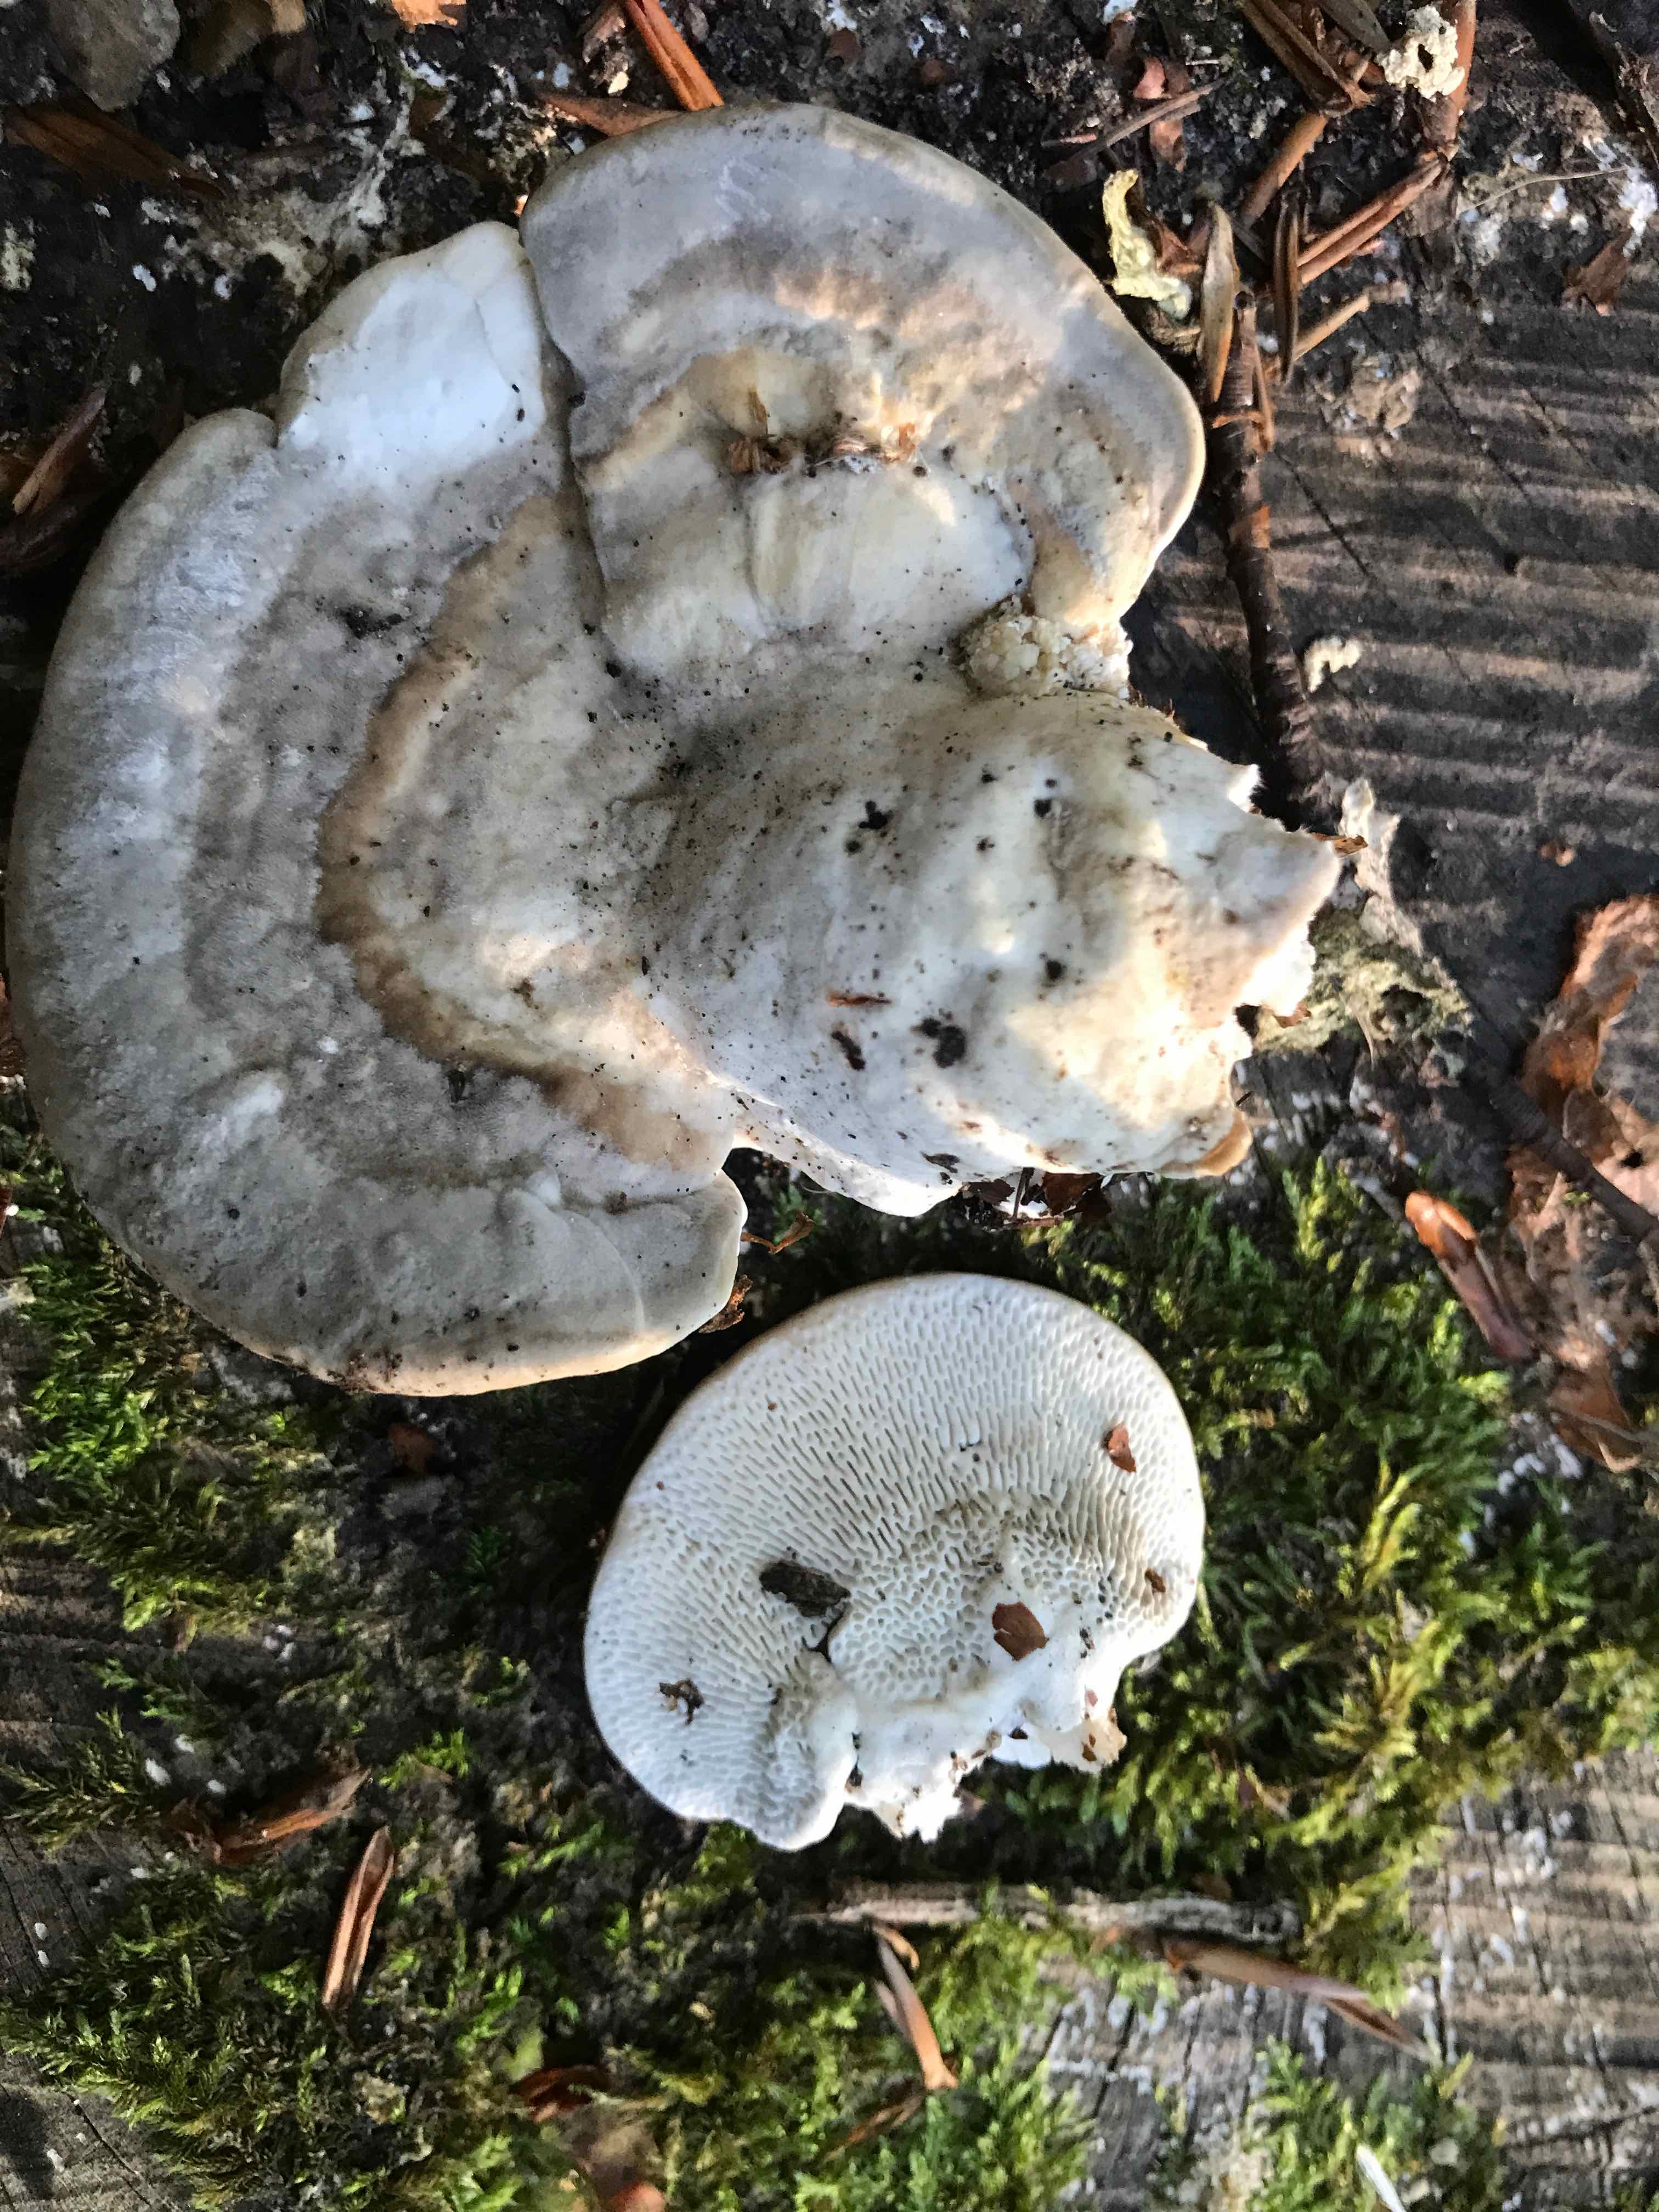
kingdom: Fungi
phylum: Basidiomycota
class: Agaricomycetes
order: Polyporales
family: Polyporaceae
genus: Trametes
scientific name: Trametes gibbosa
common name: puklet læderporesvamp
